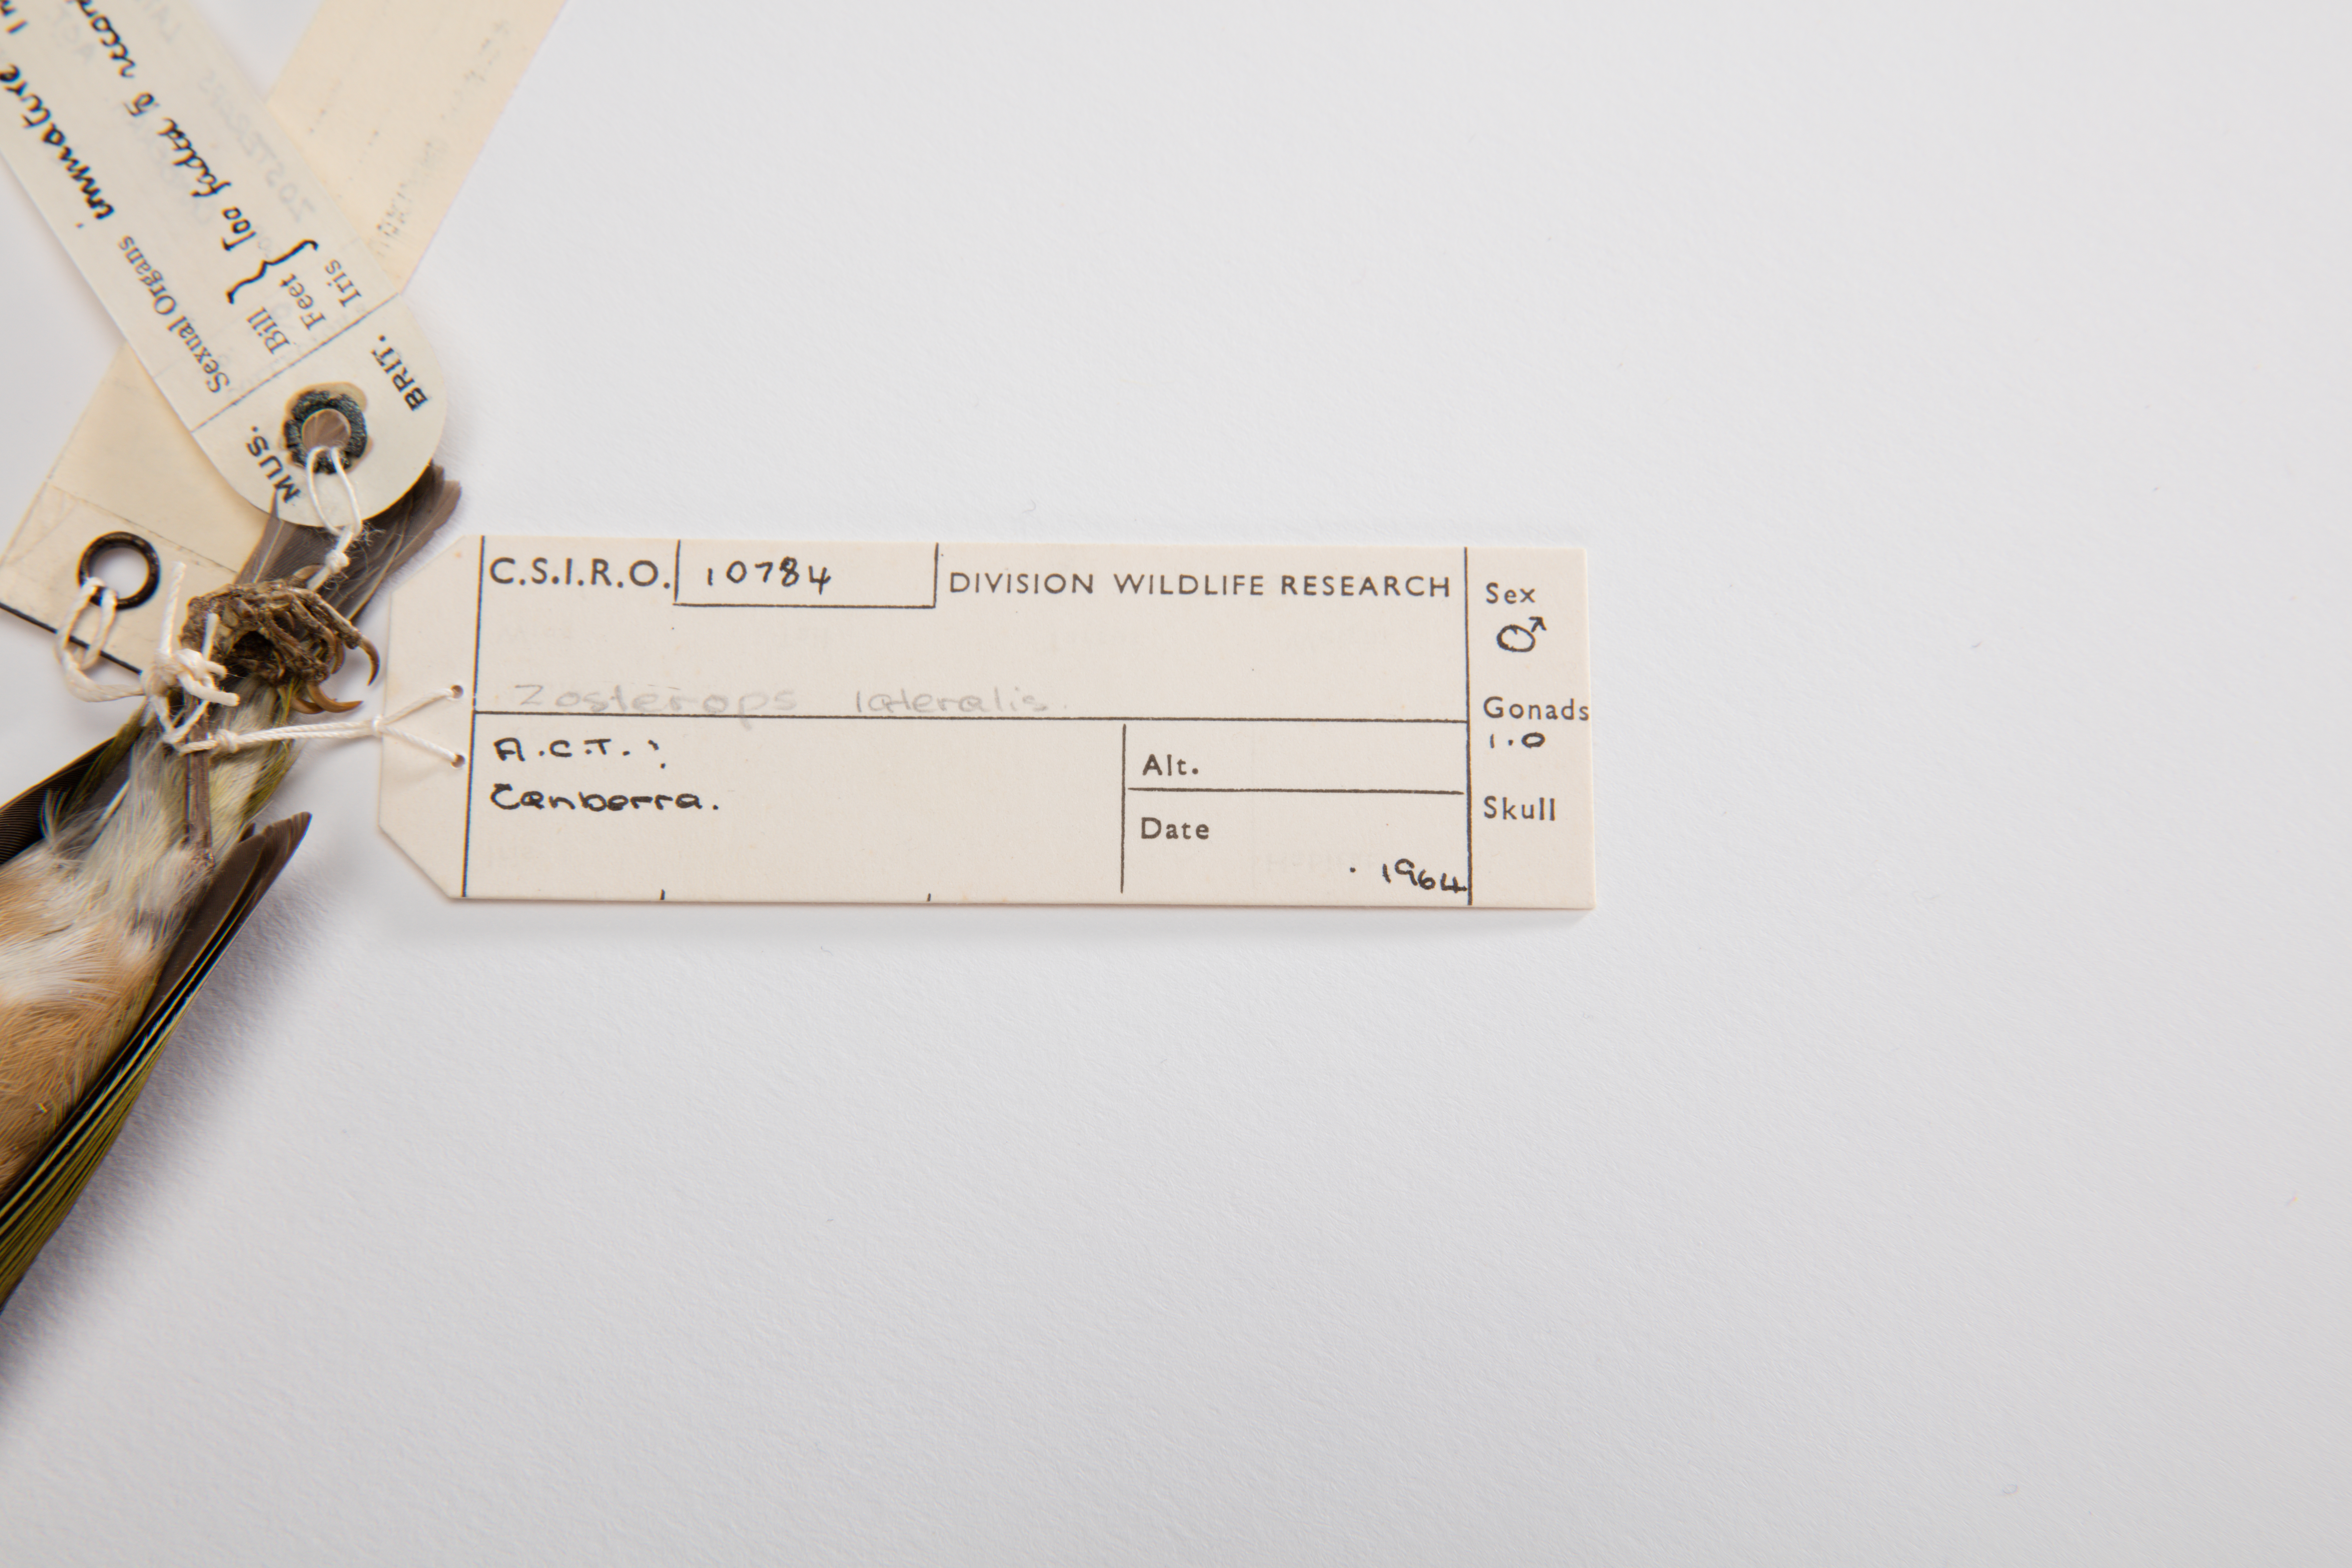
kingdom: Animalia
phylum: Chordata
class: Aves
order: Passeriformes
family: Zosteropidae
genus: Zosterops
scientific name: Zosterops lateralis
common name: Silvereye
